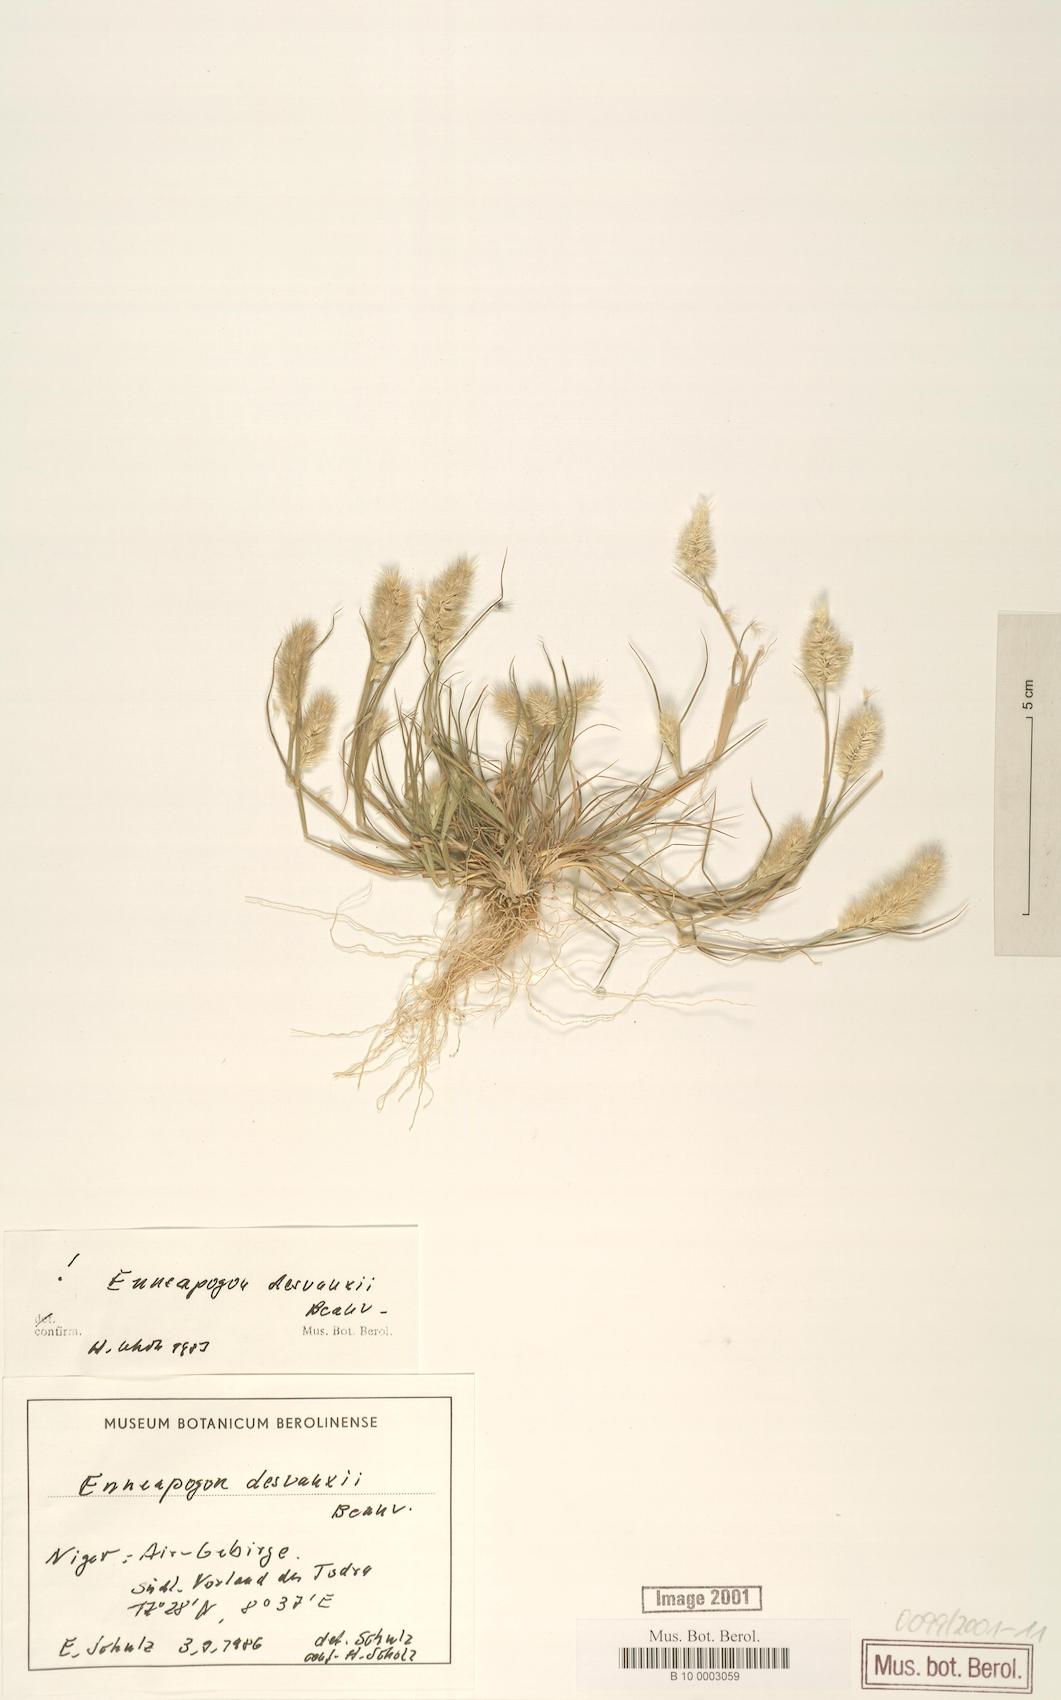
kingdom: Plantae
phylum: Tracheophyta
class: Liliopsida
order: Poales
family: Poaceae
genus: Enneapogon
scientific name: Enneapogon desvauxii
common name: Feather pappus grass
